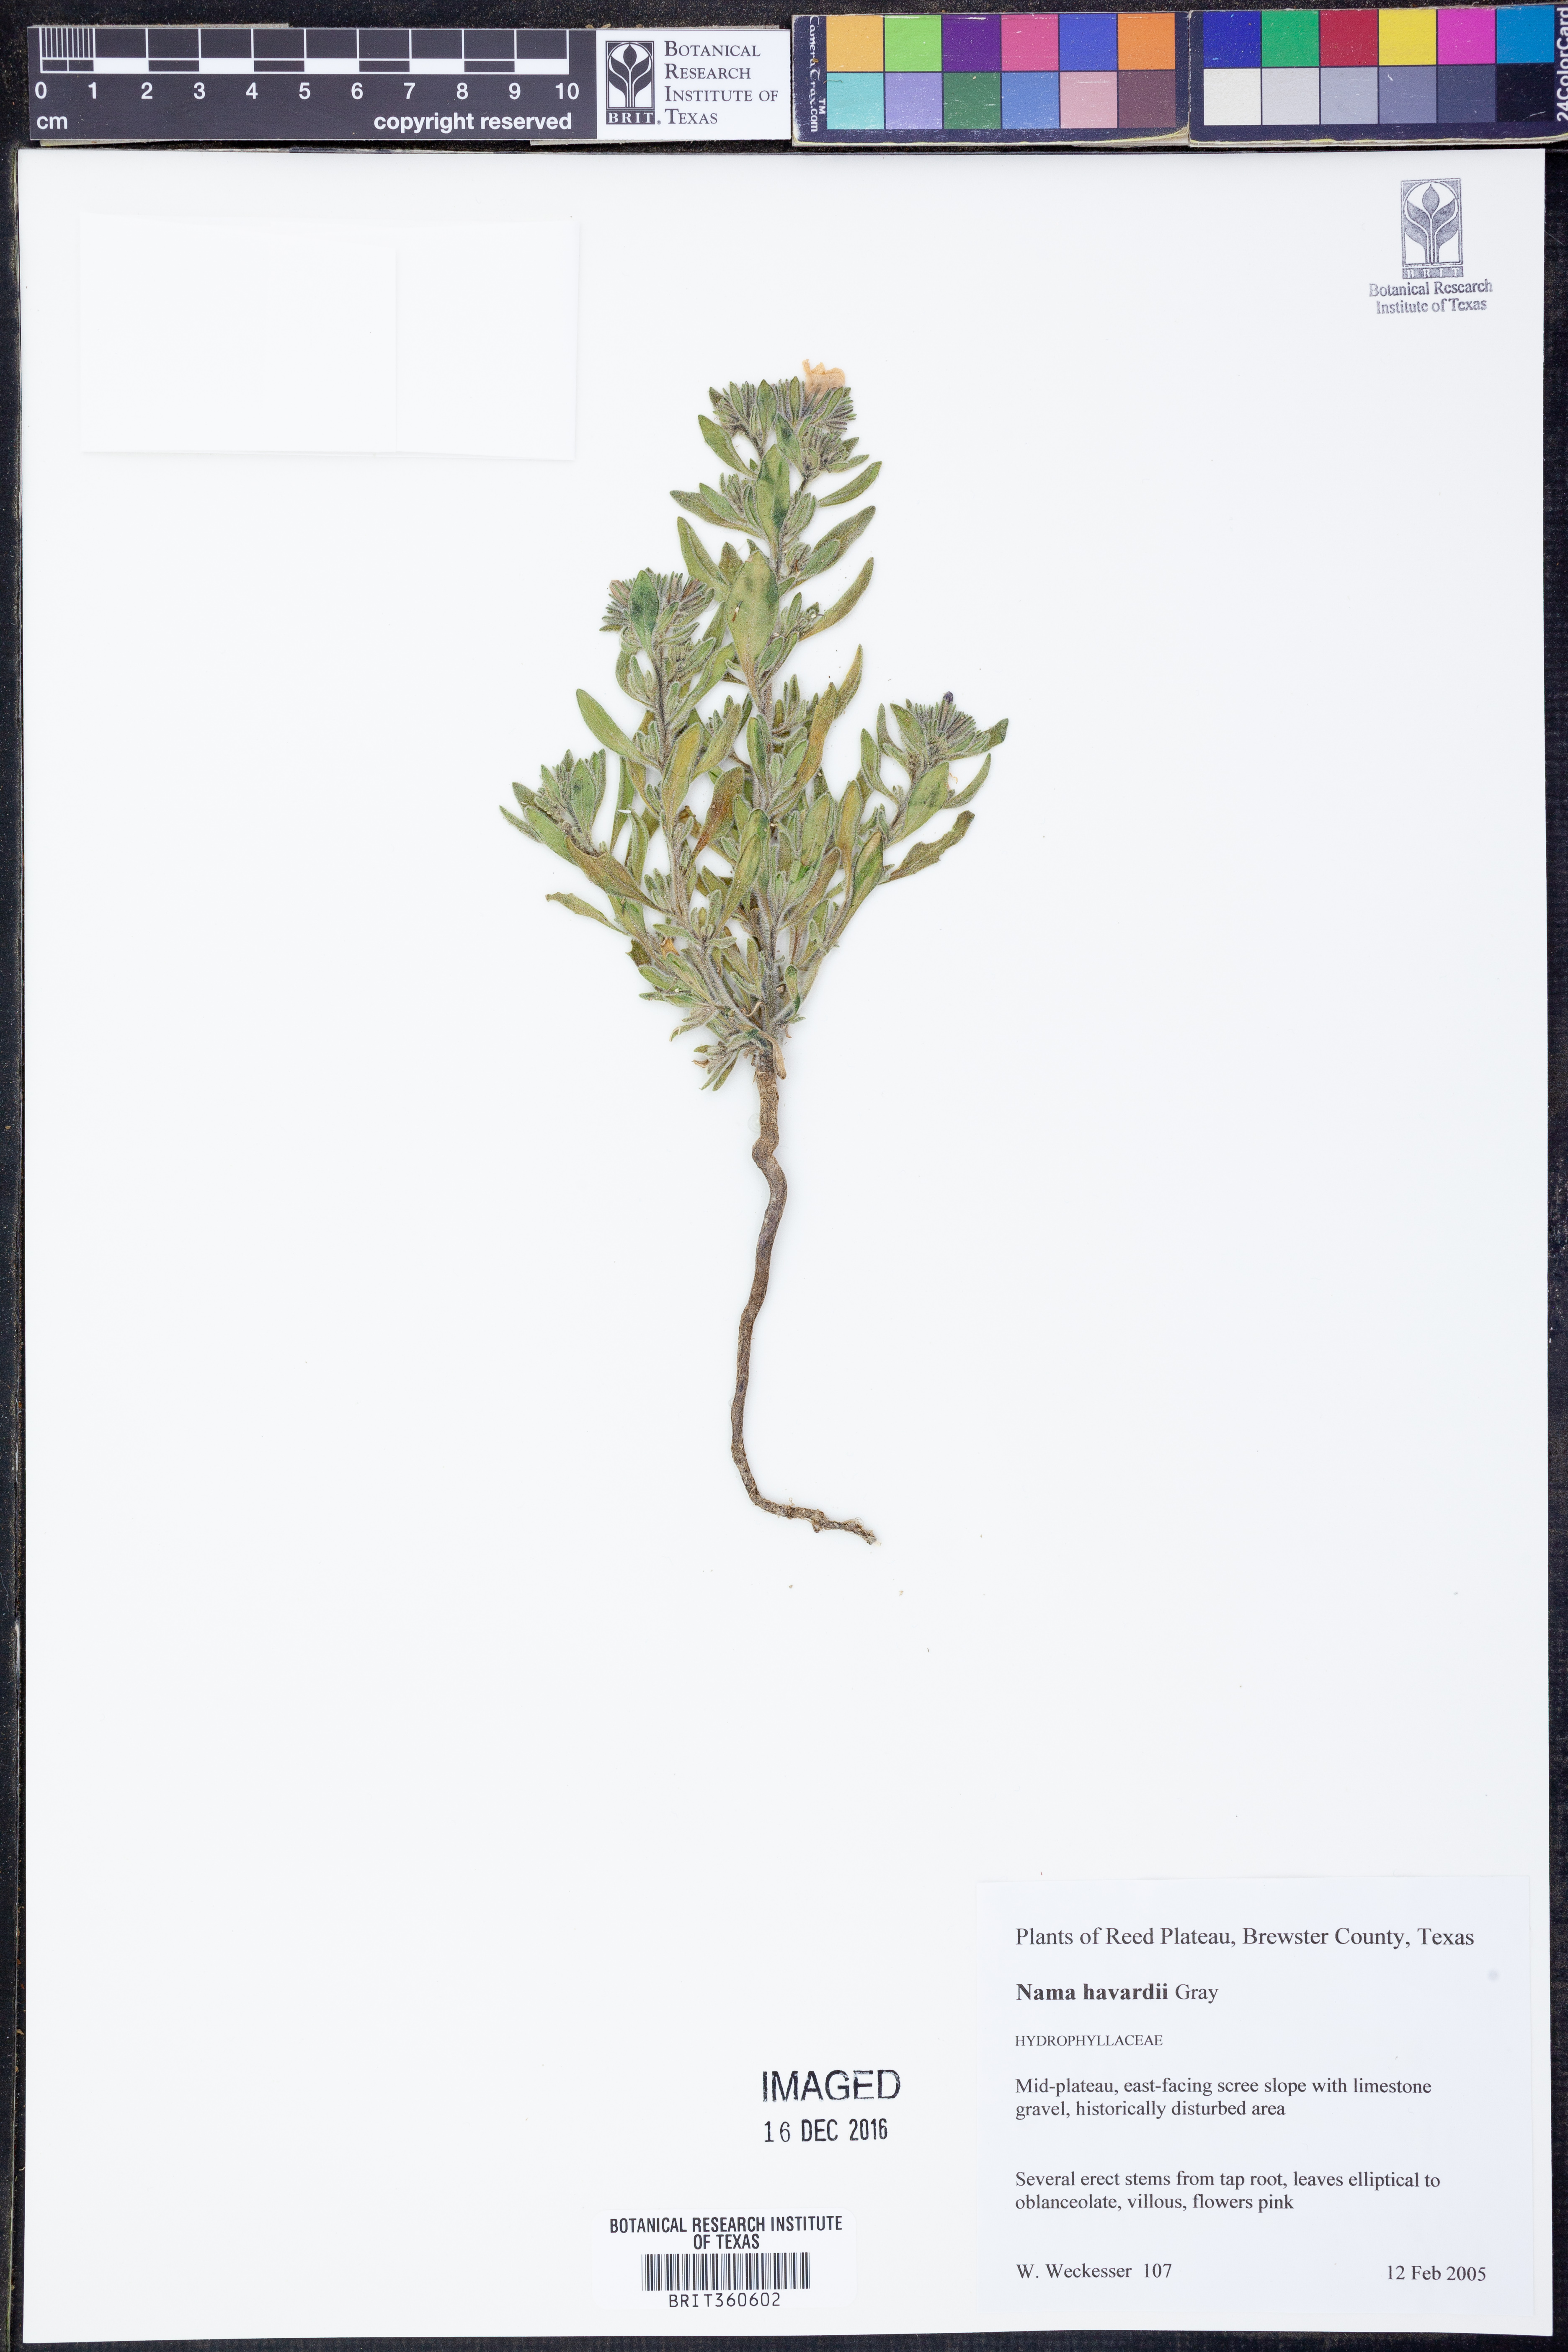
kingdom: Plantae
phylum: Tracheophyta
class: Magnoliopsida
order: Boraginales
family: Namaceae
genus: Nama
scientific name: Nama havardii
